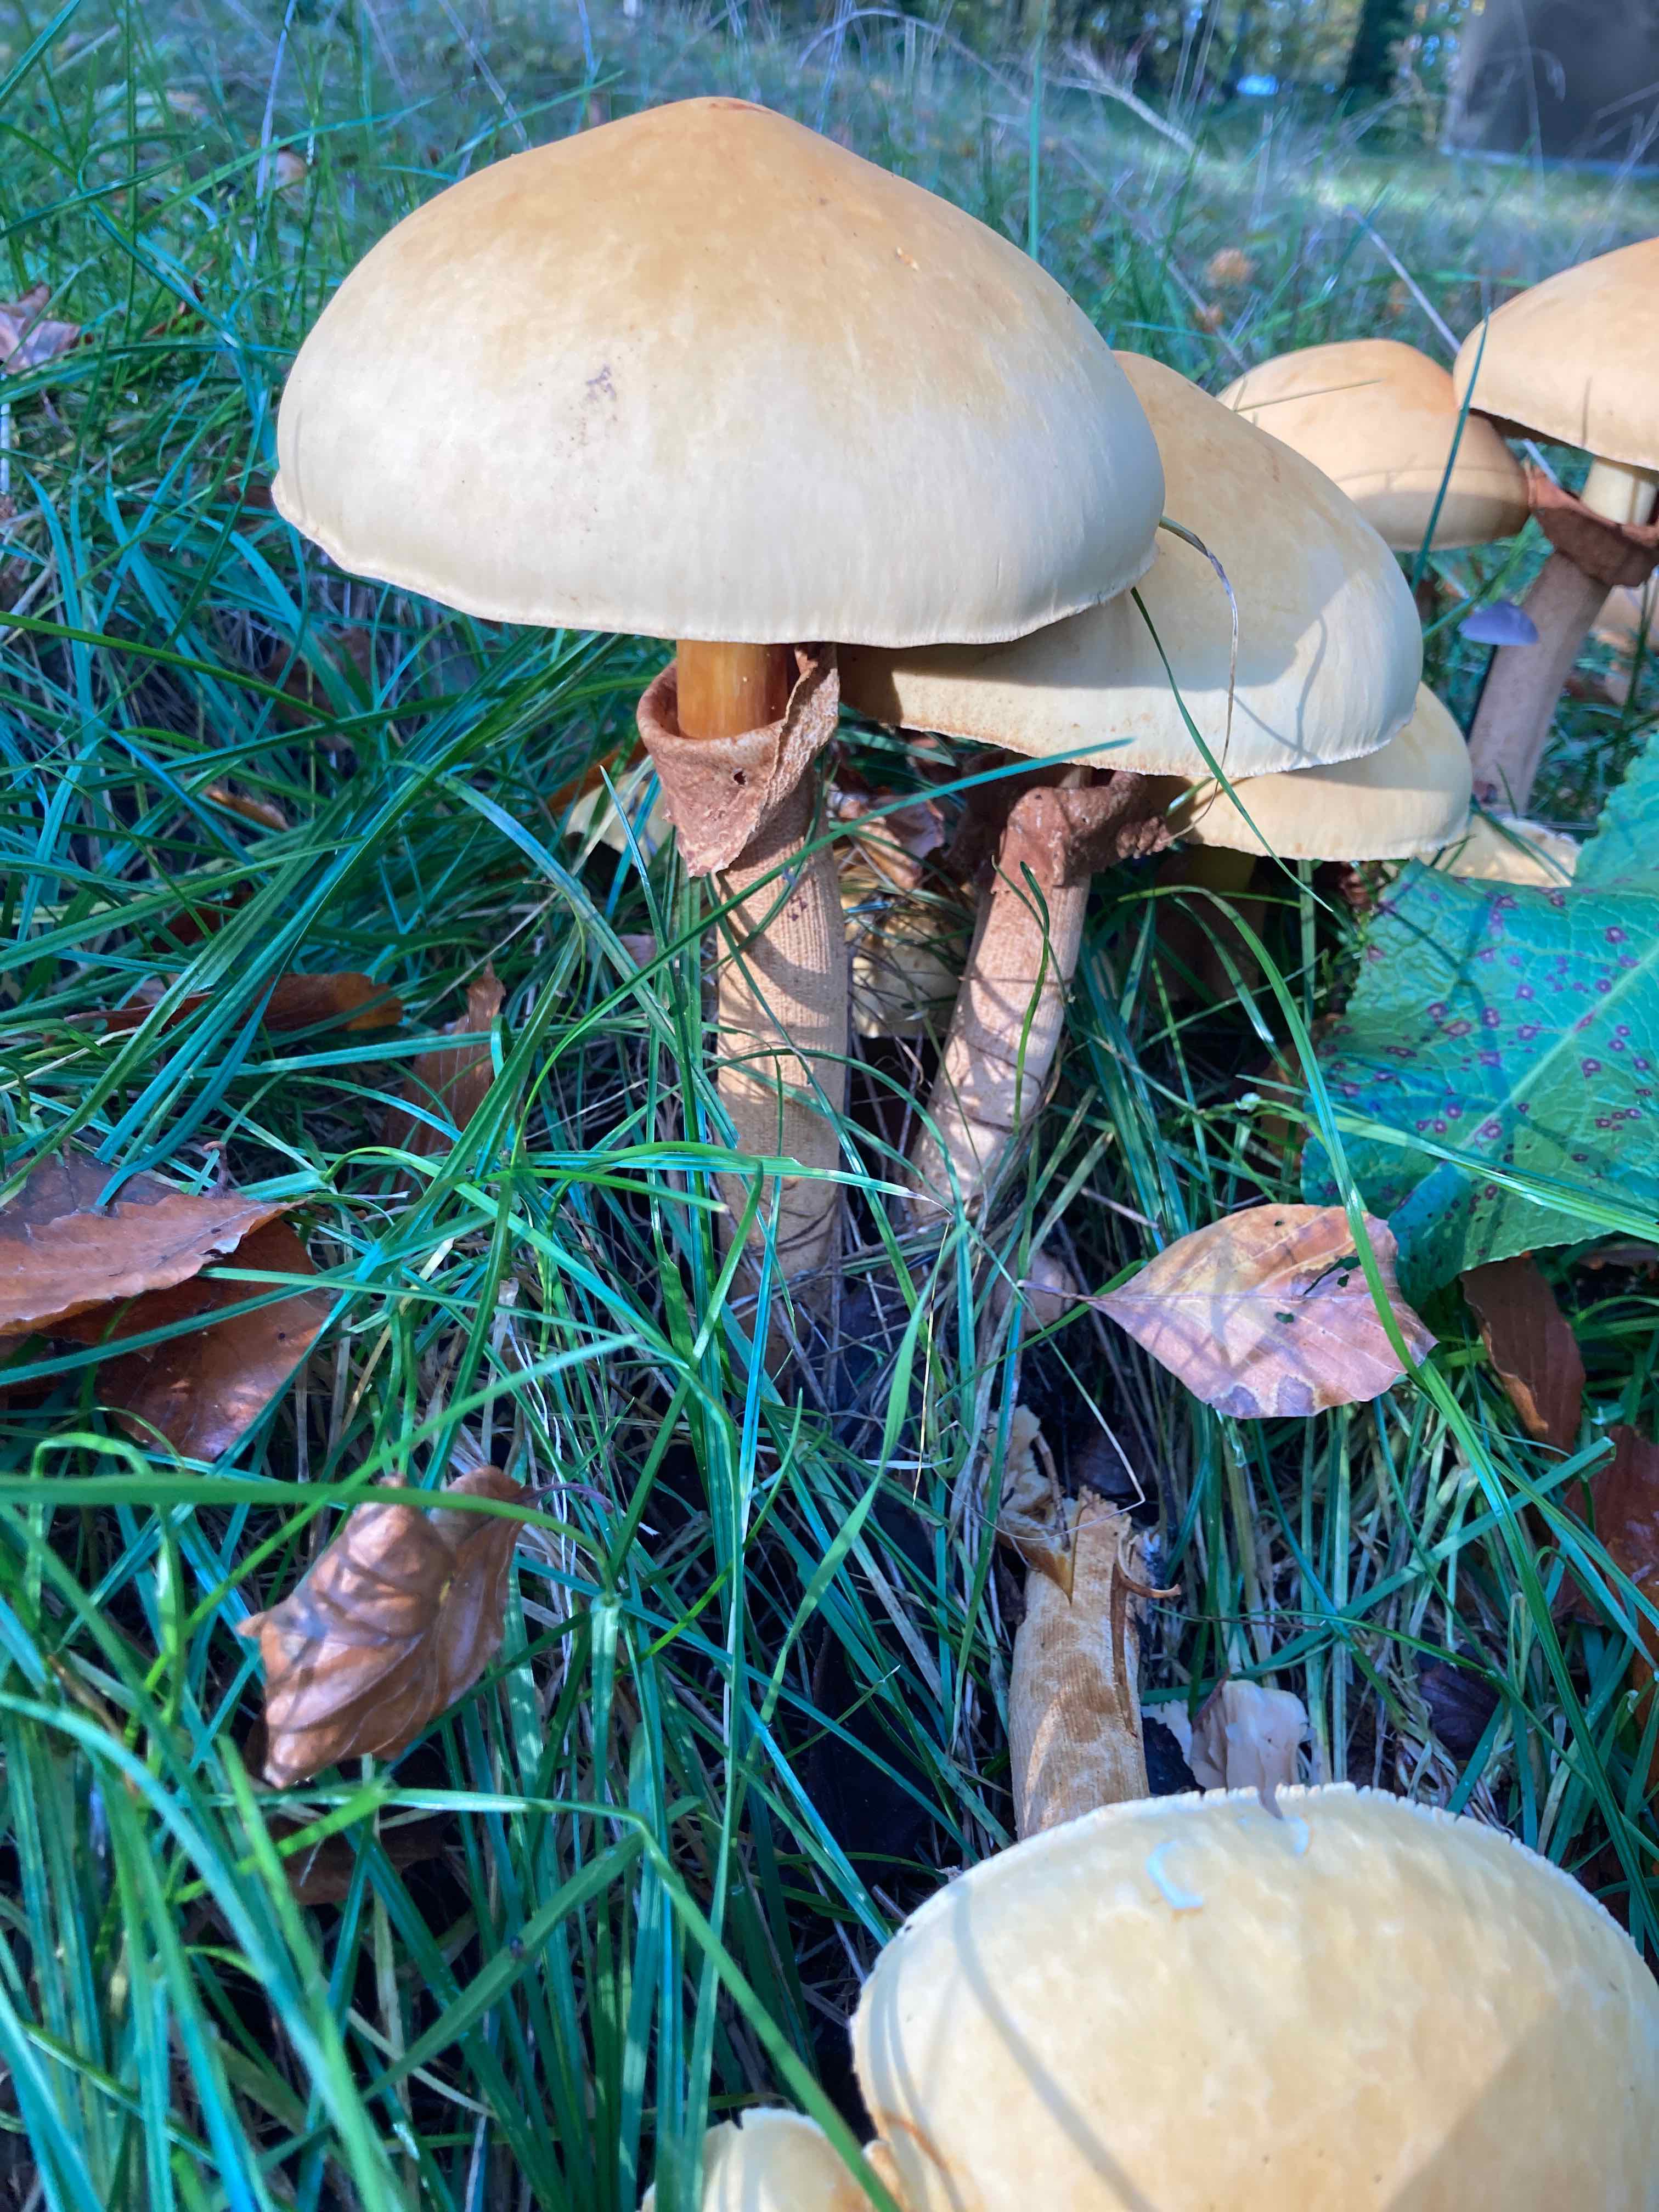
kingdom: Fungi
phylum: Basidiomycota
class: Agaricomycetes
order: Agaricales
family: Tricholomataceae
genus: Phaeolepiota
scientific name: Phaeolepiota aurea
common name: gyldenhat
